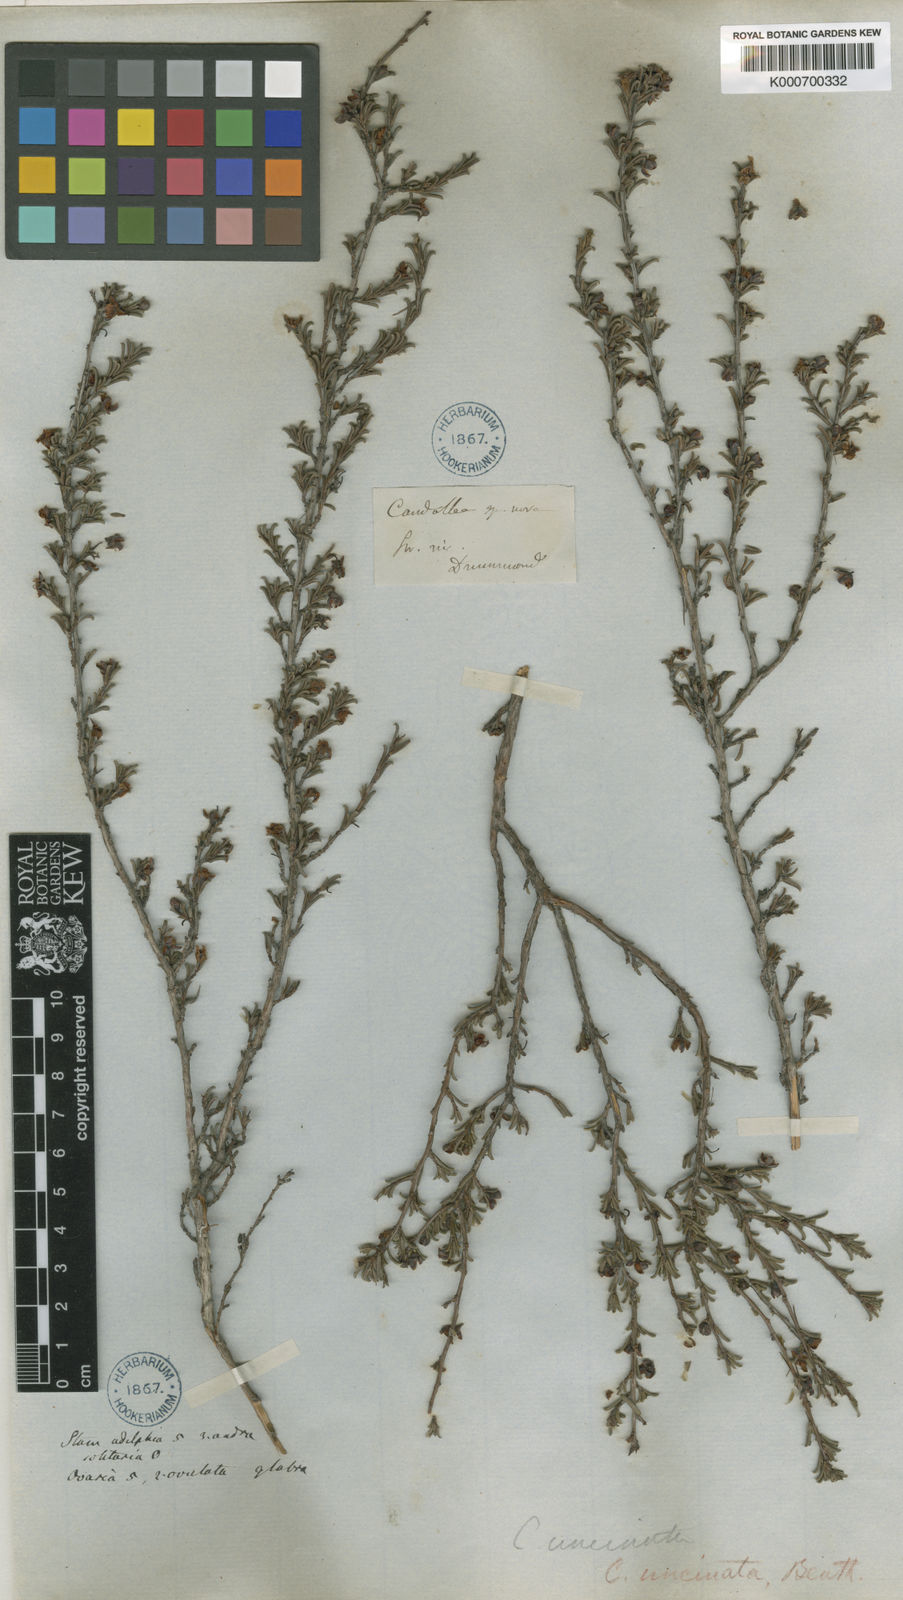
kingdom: Plantae
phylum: Tracheophyta
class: Magnoliopsida
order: Dilleniales
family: Dilleniaceae
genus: Hibbertia
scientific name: Hibbertia rostellata
